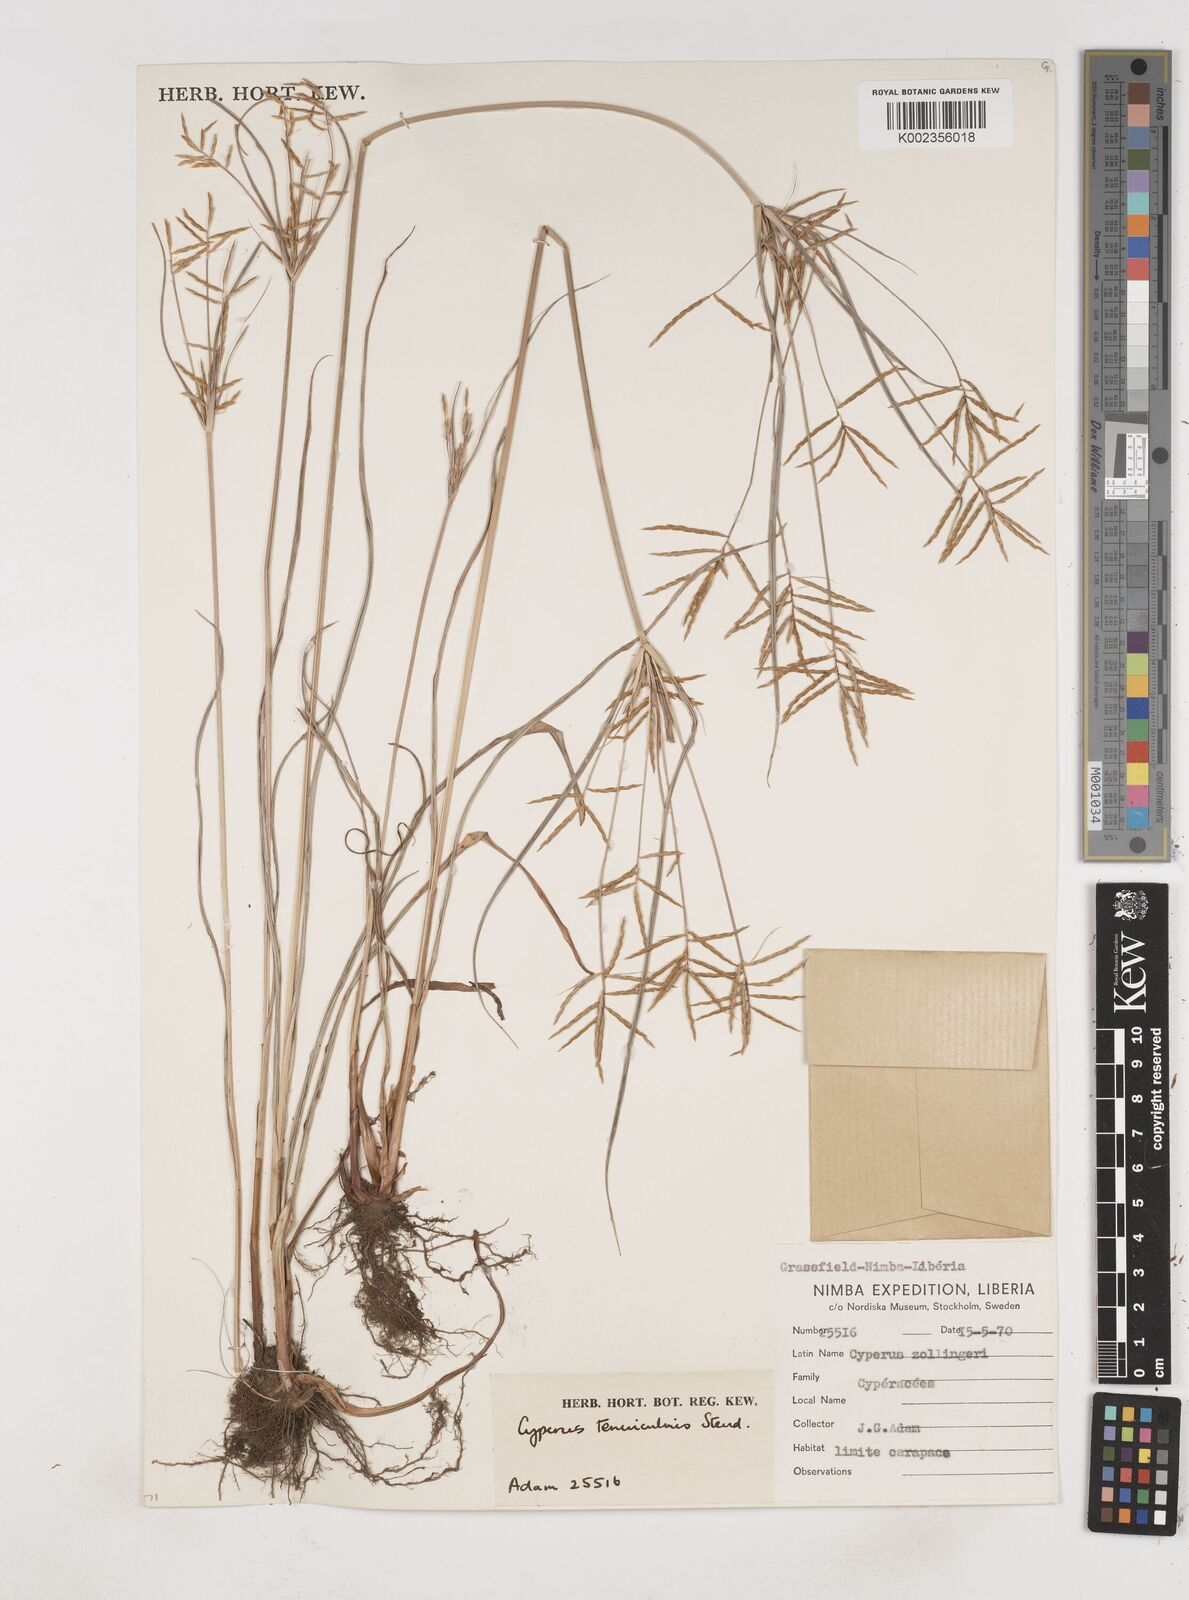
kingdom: Plantae
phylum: Tracheophyta
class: Liliopsida
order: Poales
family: Cyperaceae
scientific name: Cyperaceae
